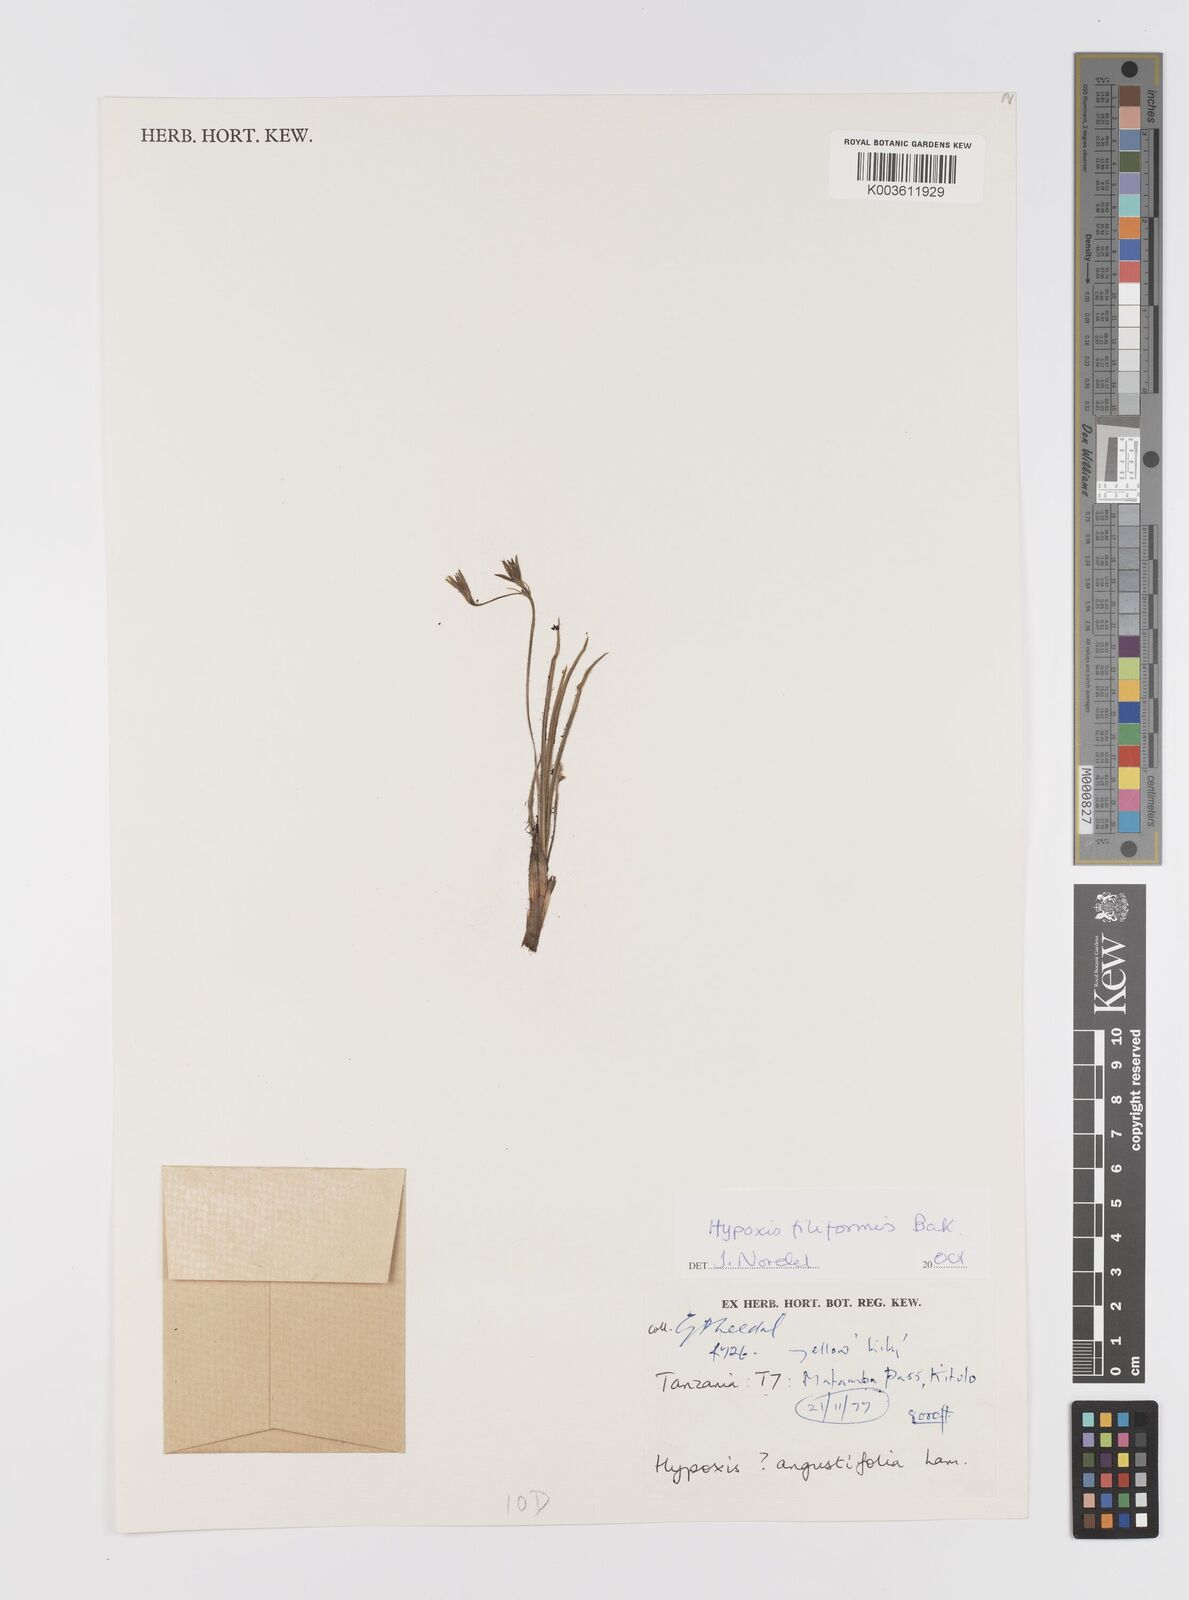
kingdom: Plantae
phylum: Tracheophyta
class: Liliopsida
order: Asparagales
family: Hypoxidaceae
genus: Hypoxis
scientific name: Hypoxis filiformis
